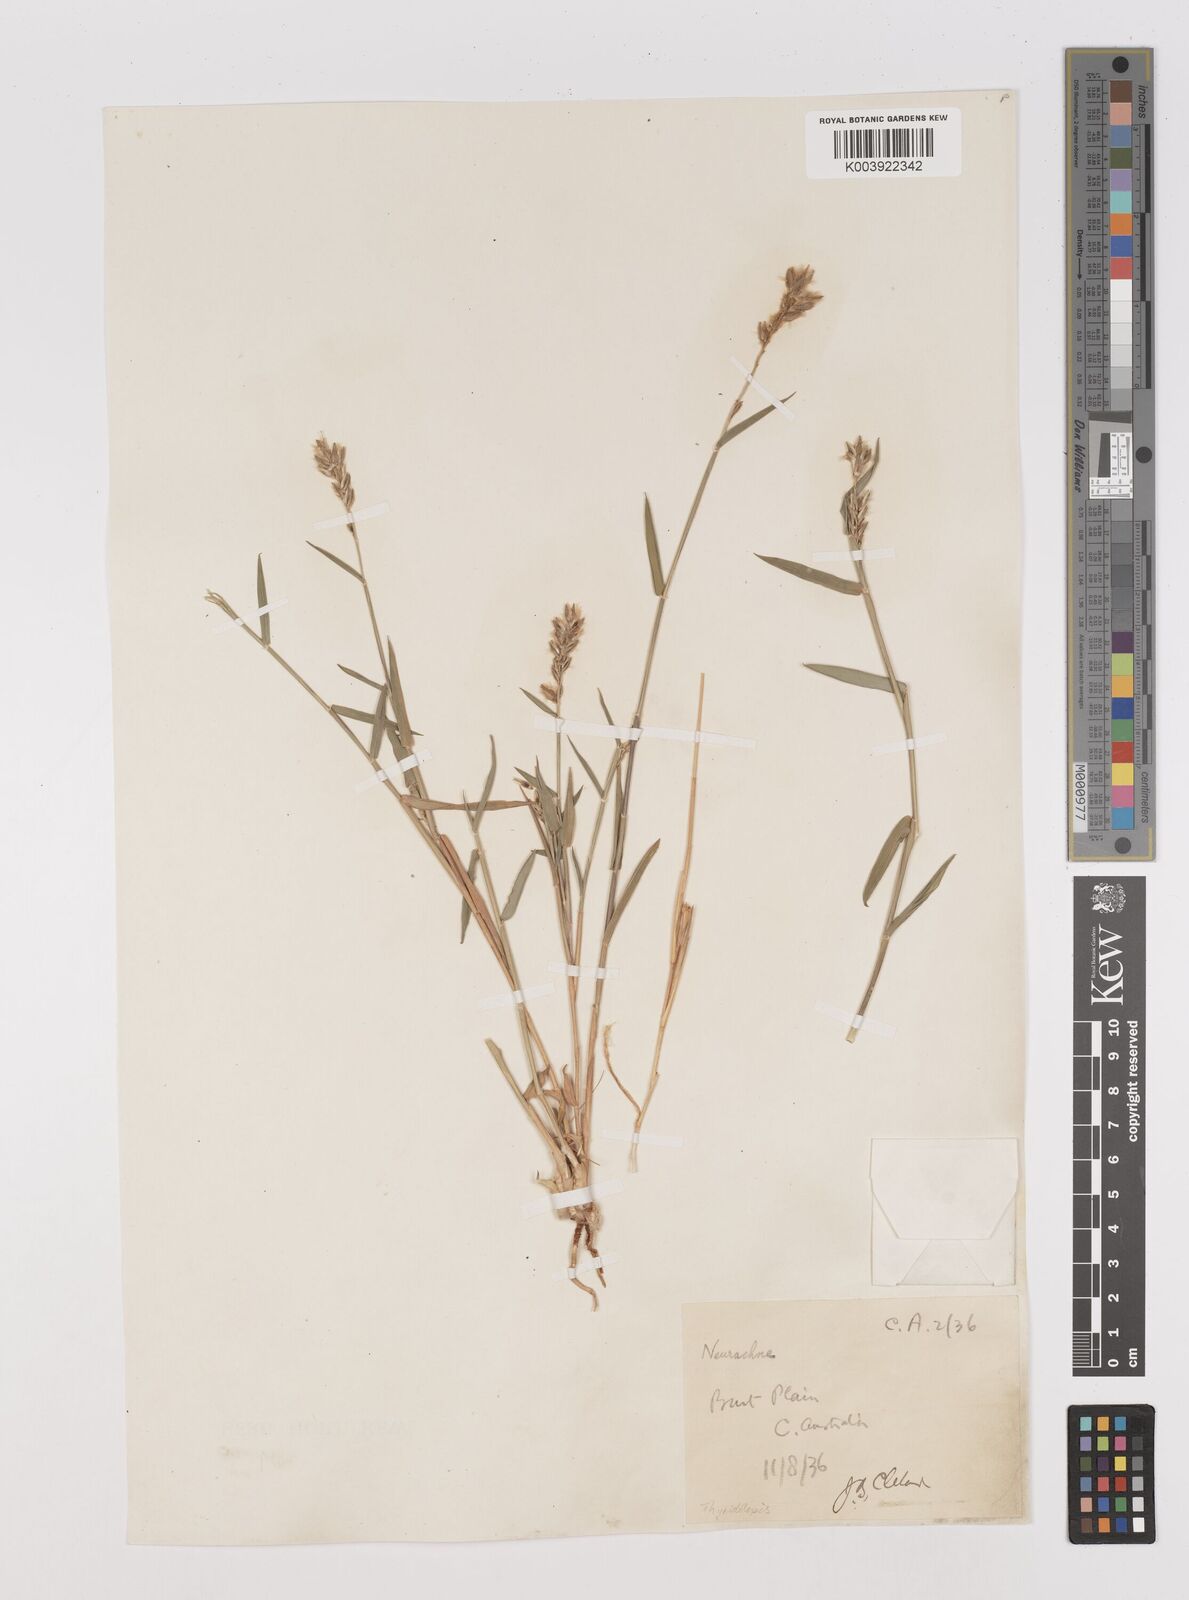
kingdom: Plantae
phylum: Tracheophyta
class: Liliopsida
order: Poales
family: Poaceae
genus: Thyridolepis
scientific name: Thyridolepis mitchelliana
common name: Rock tassel grass
